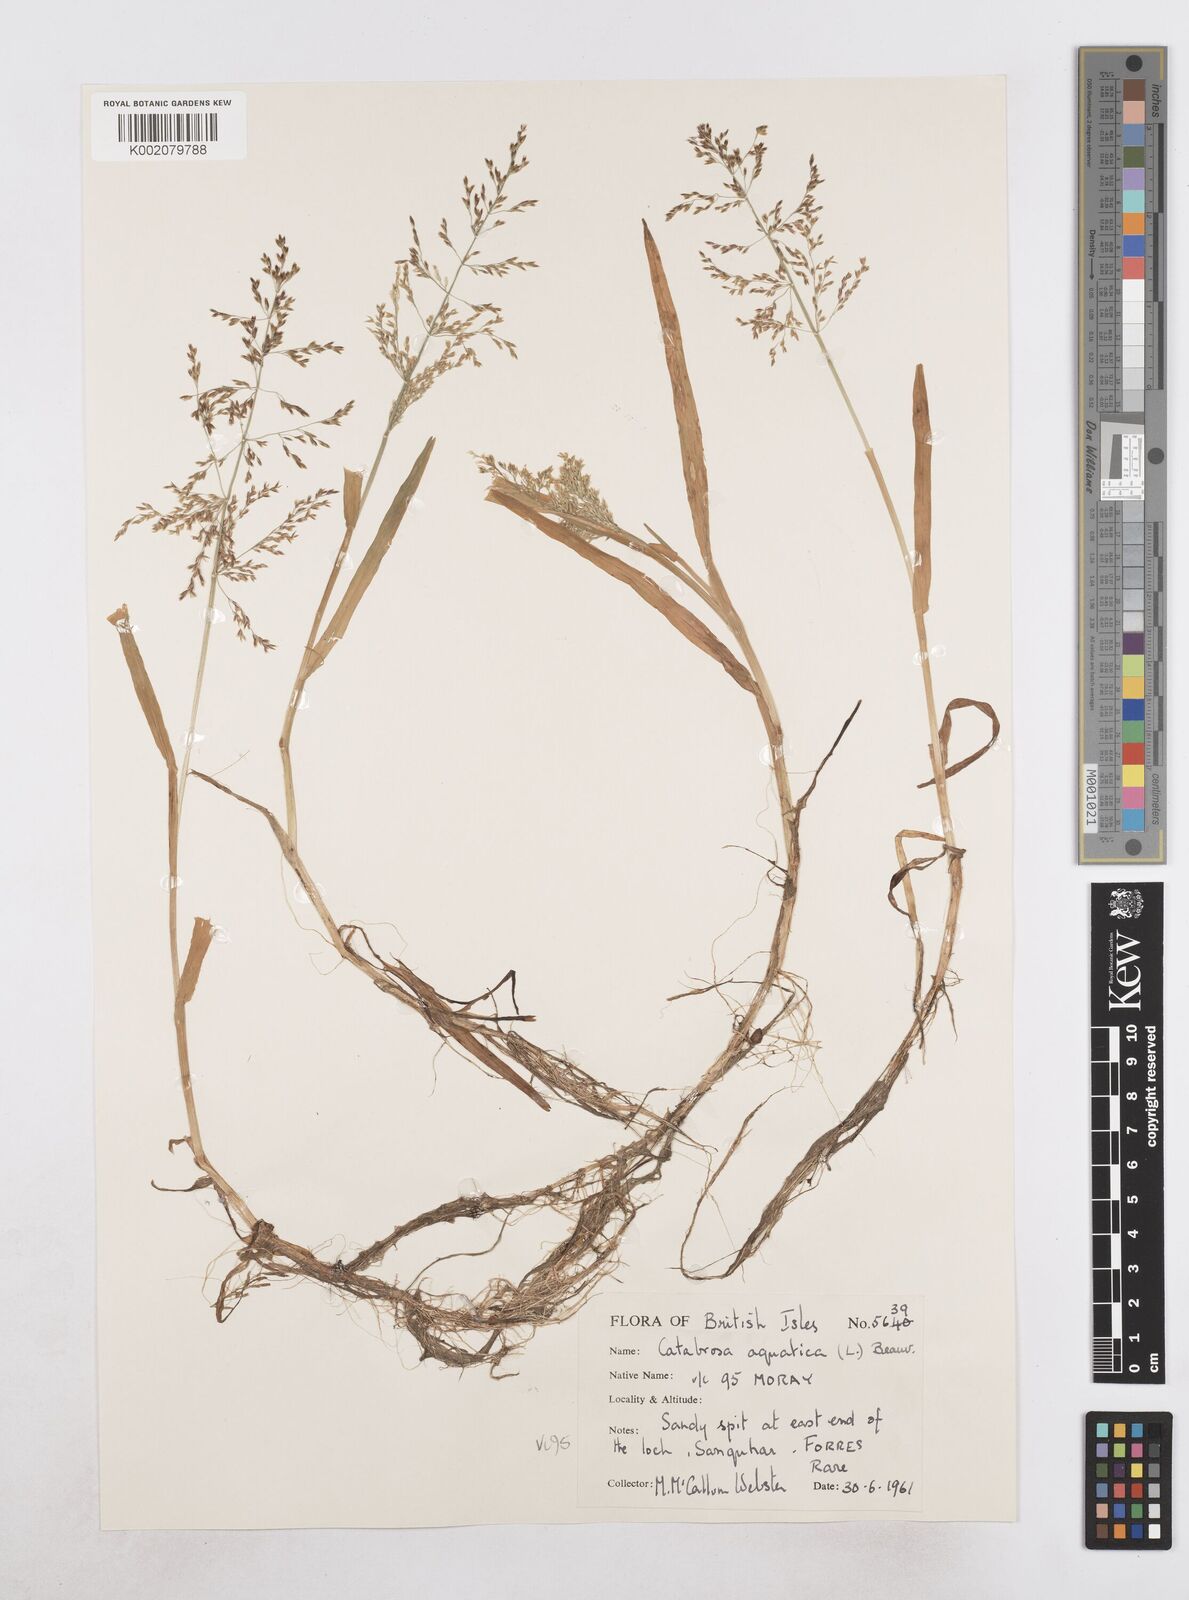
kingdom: Plantae
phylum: Tracheophyta
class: Liliopsida
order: Poales
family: Poaceae
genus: Catabrosa
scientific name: Catabrosa aquatica
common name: Whorl-grass
